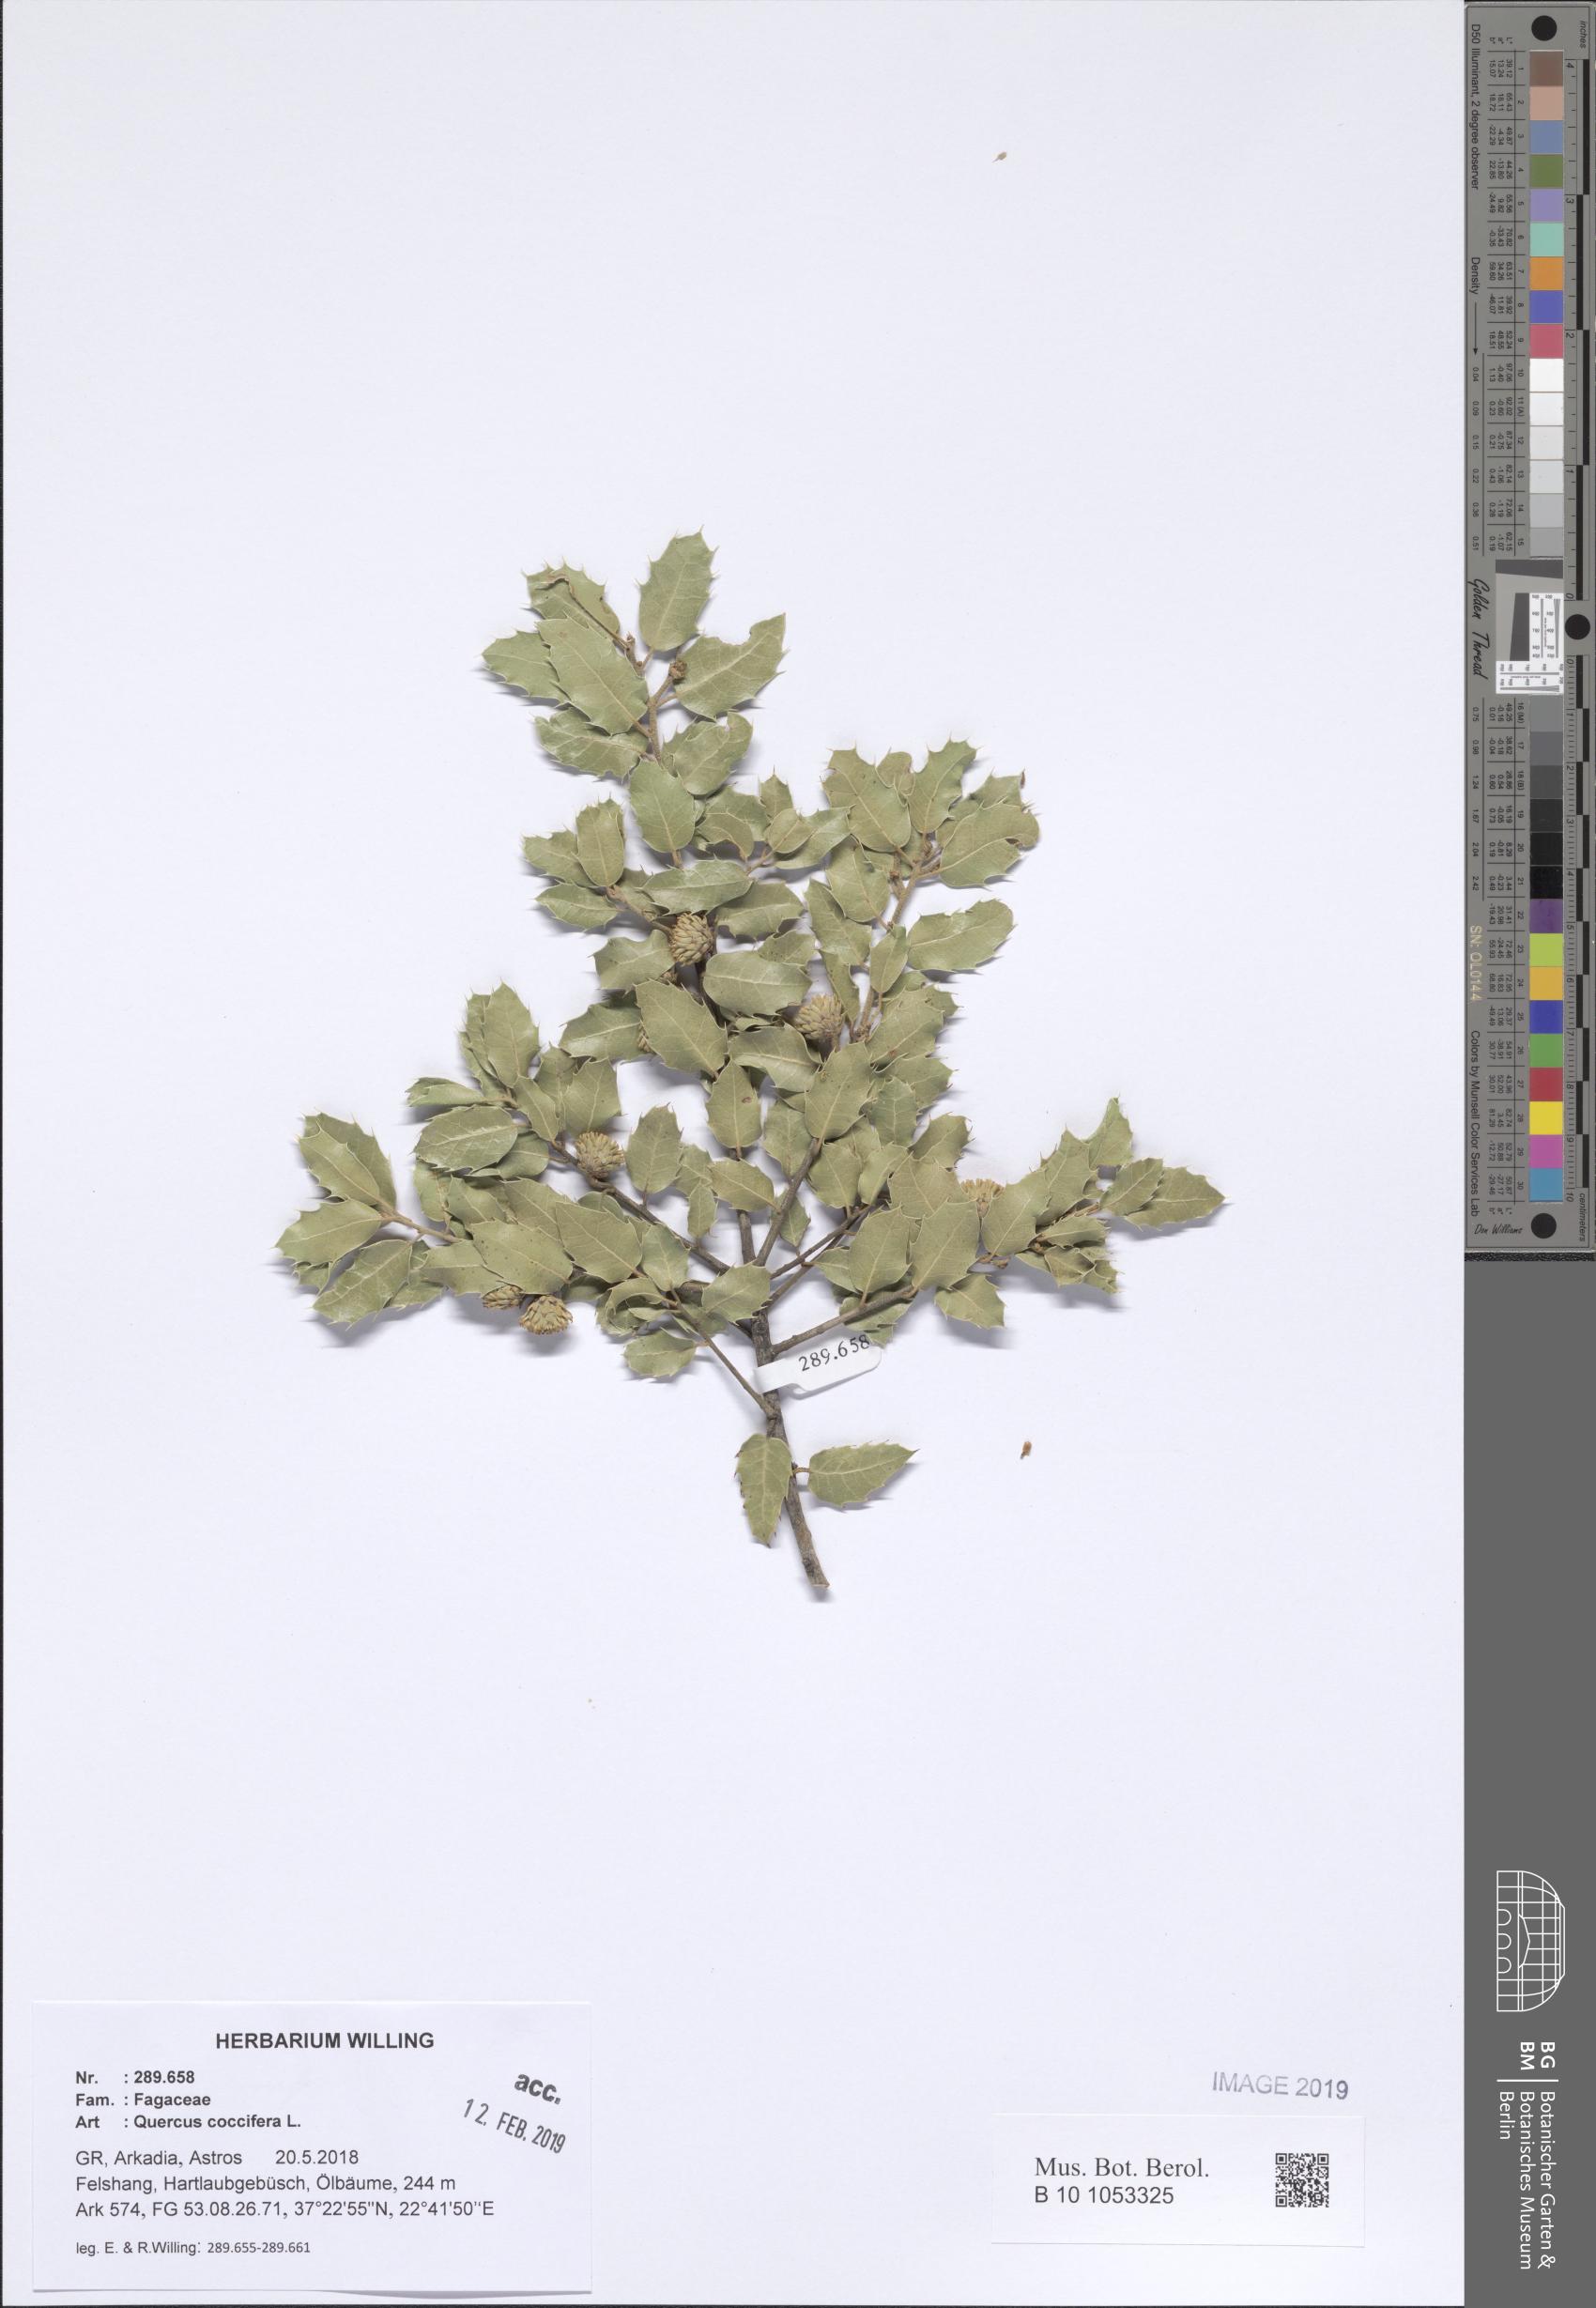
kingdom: Plantae
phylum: Tracheophyta
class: Magnoliopsida
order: Fagales
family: Fagaceae
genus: Quercus
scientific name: Quercus coccifera
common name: Kermes oak
